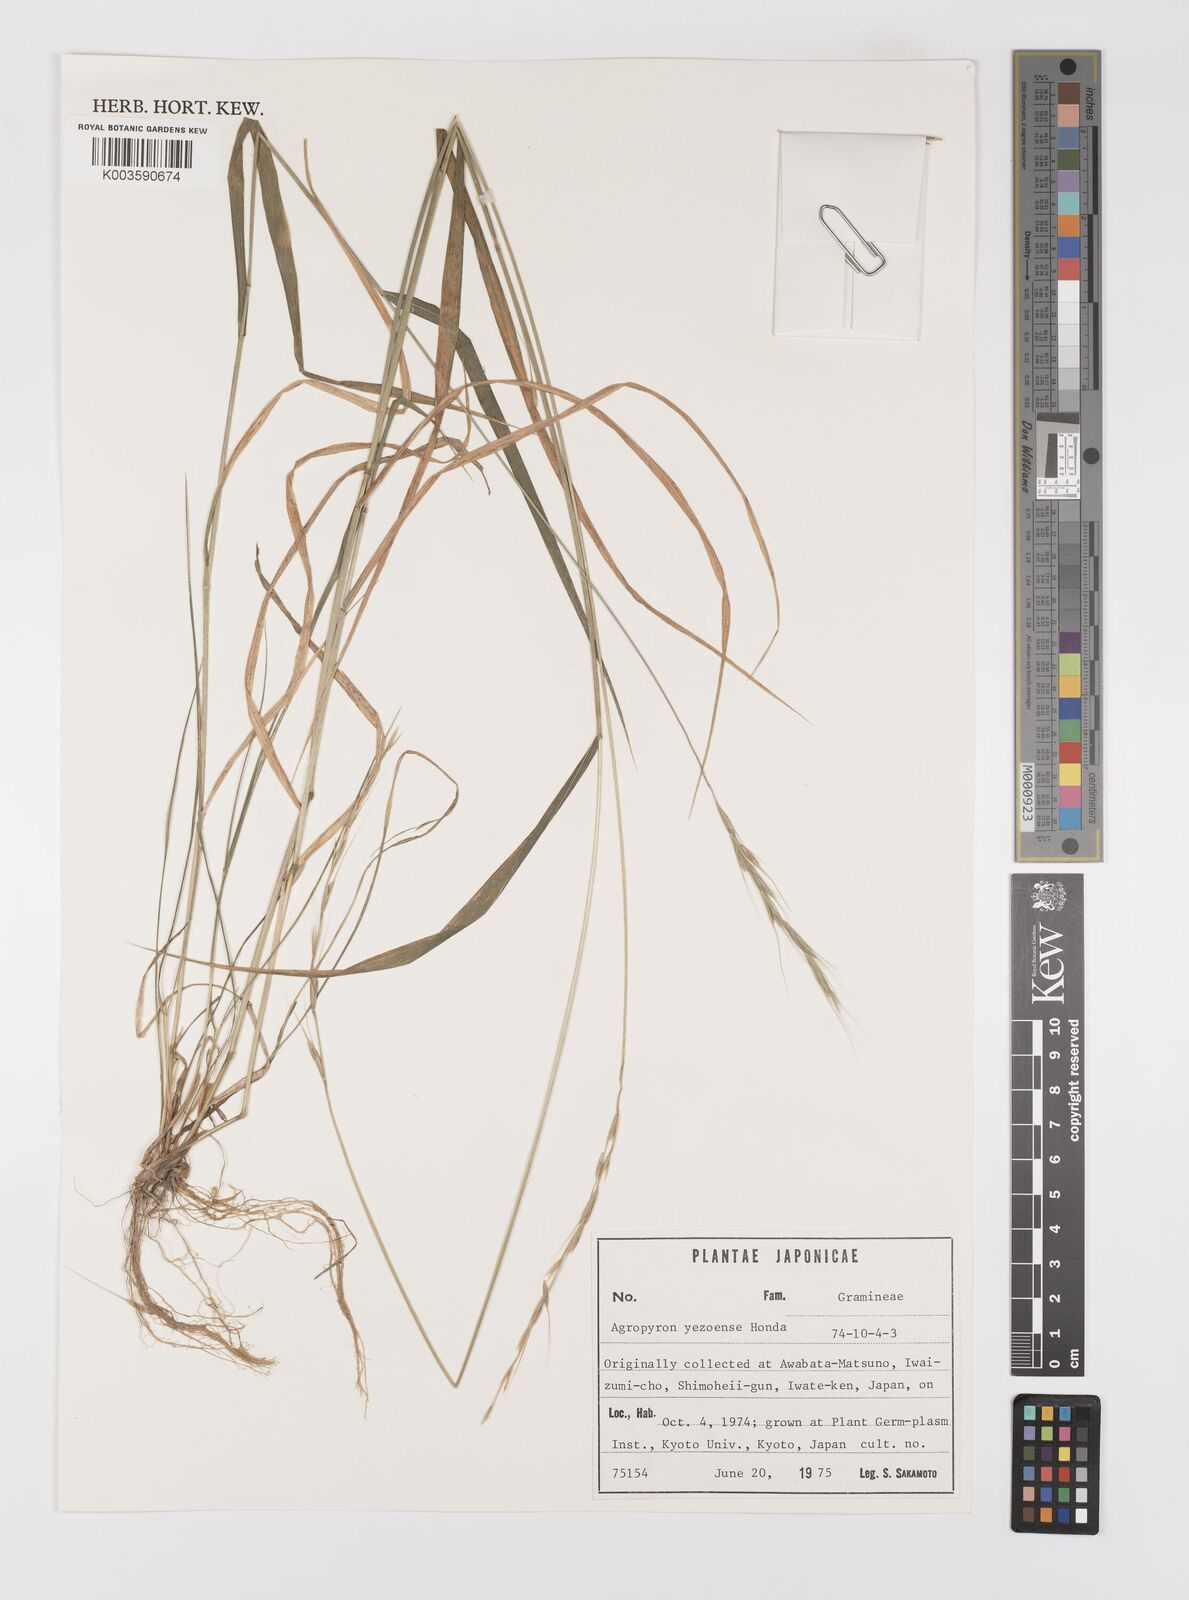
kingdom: Plantae
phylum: Tracheophyta
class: Liliopsida
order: Poales
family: Poaceae
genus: Elymus
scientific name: Elymus nipponicus
